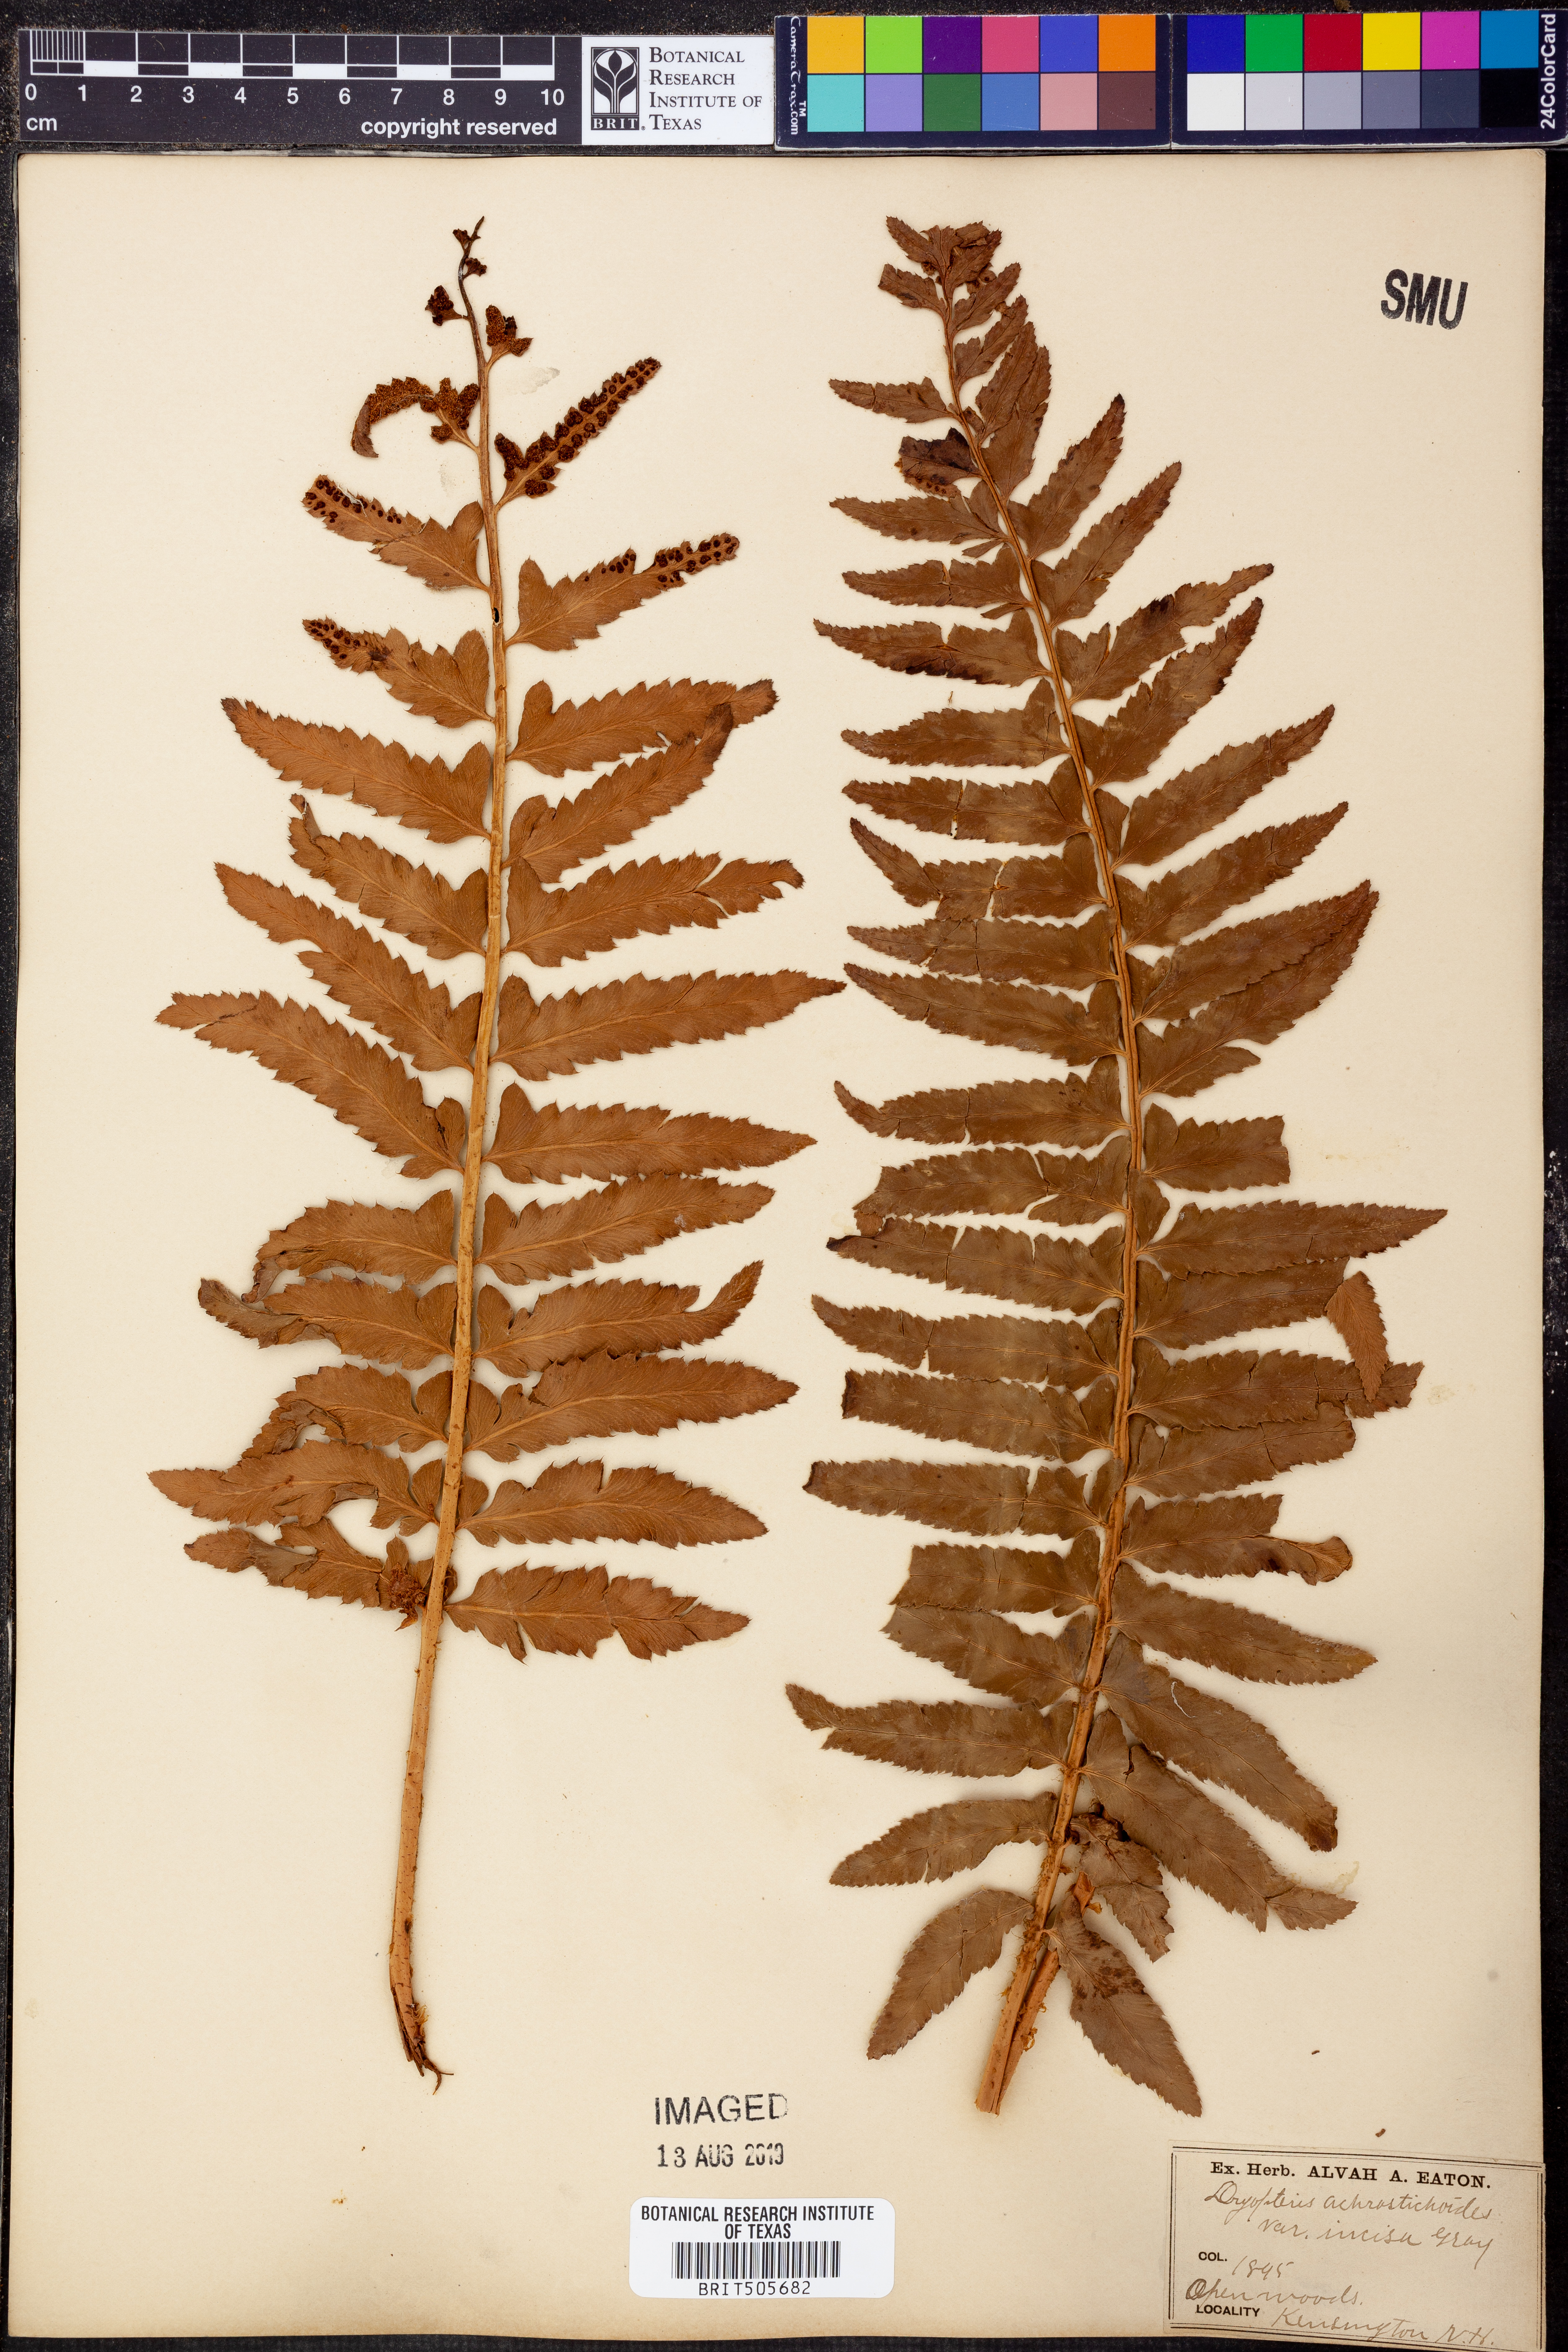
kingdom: Plantae
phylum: Tracheophyta
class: Polypodiopsida
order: Polypodiales
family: Dryopteridaceae
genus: Polystichum
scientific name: Polystichum acrostichoides
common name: Christmas fern
